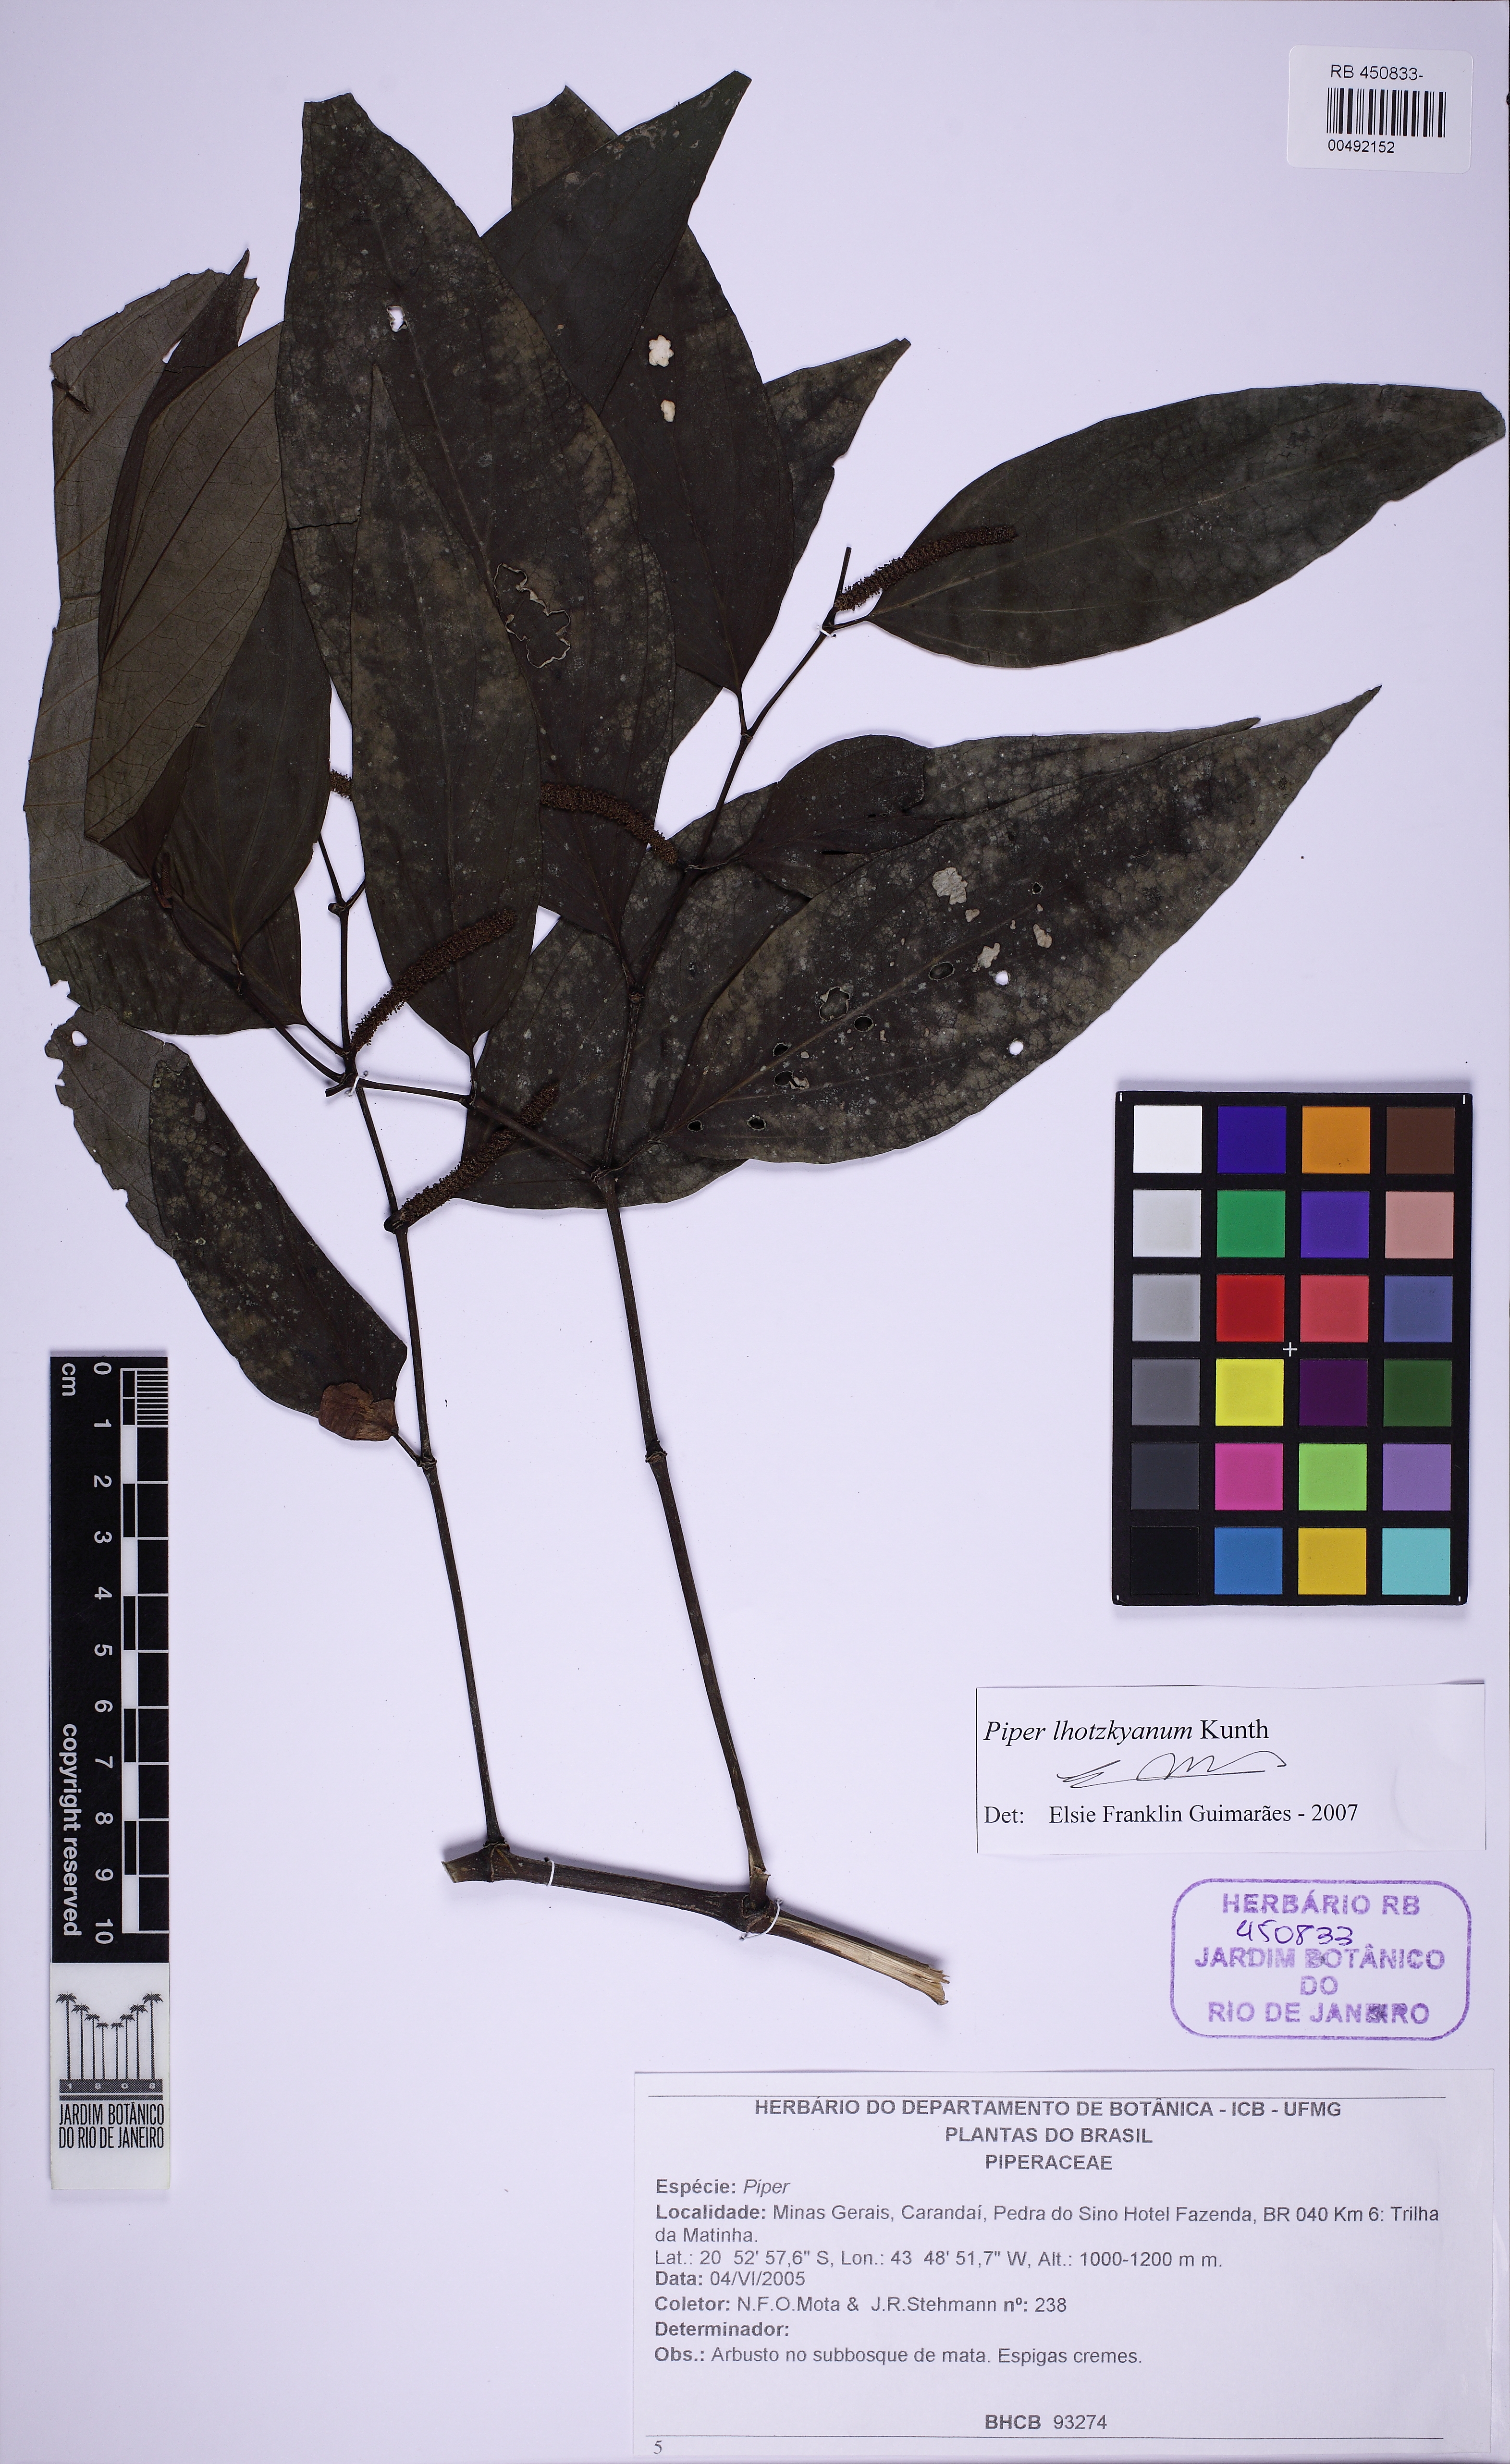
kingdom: Plantae
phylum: Tracheophyta
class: Magnoliopsida
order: Piperales
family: Piperaceae
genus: Piper
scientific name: Piper lhotzkyanum
